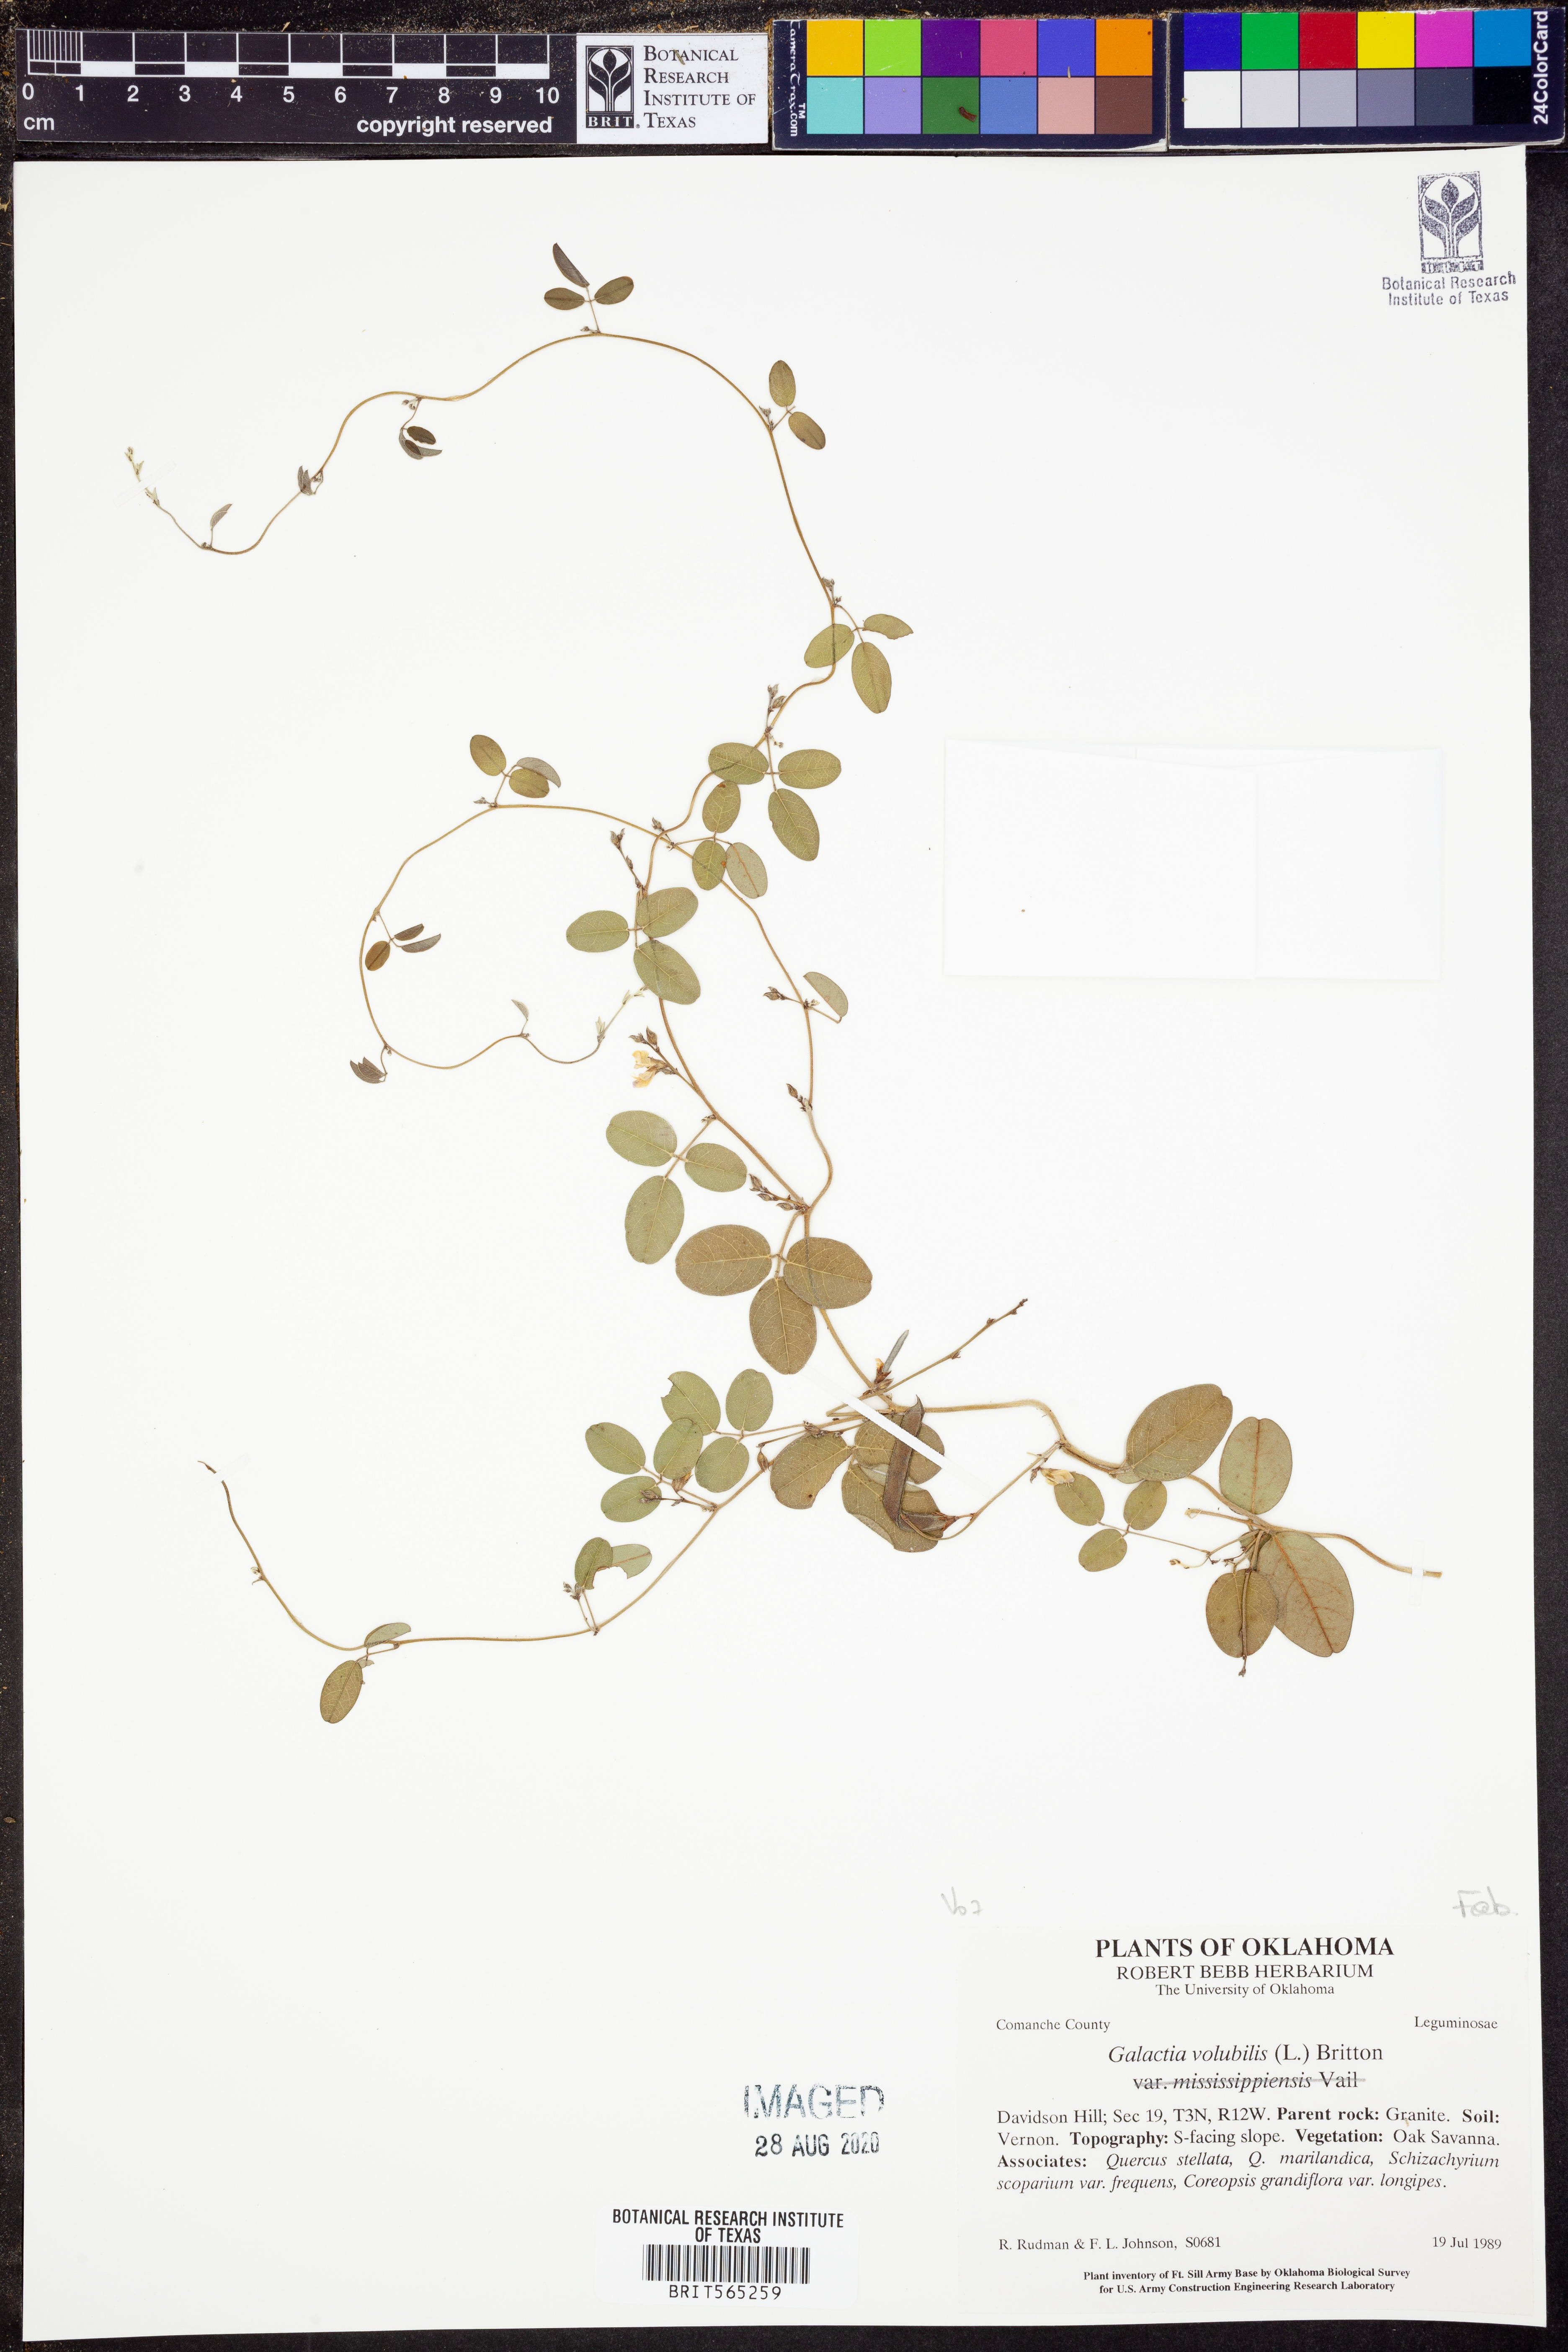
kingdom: Plantae
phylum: Tracheophyta
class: Magnoliopsida
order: Fabales
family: Fabaceae
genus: Galactia
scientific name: Galactia volubilis
